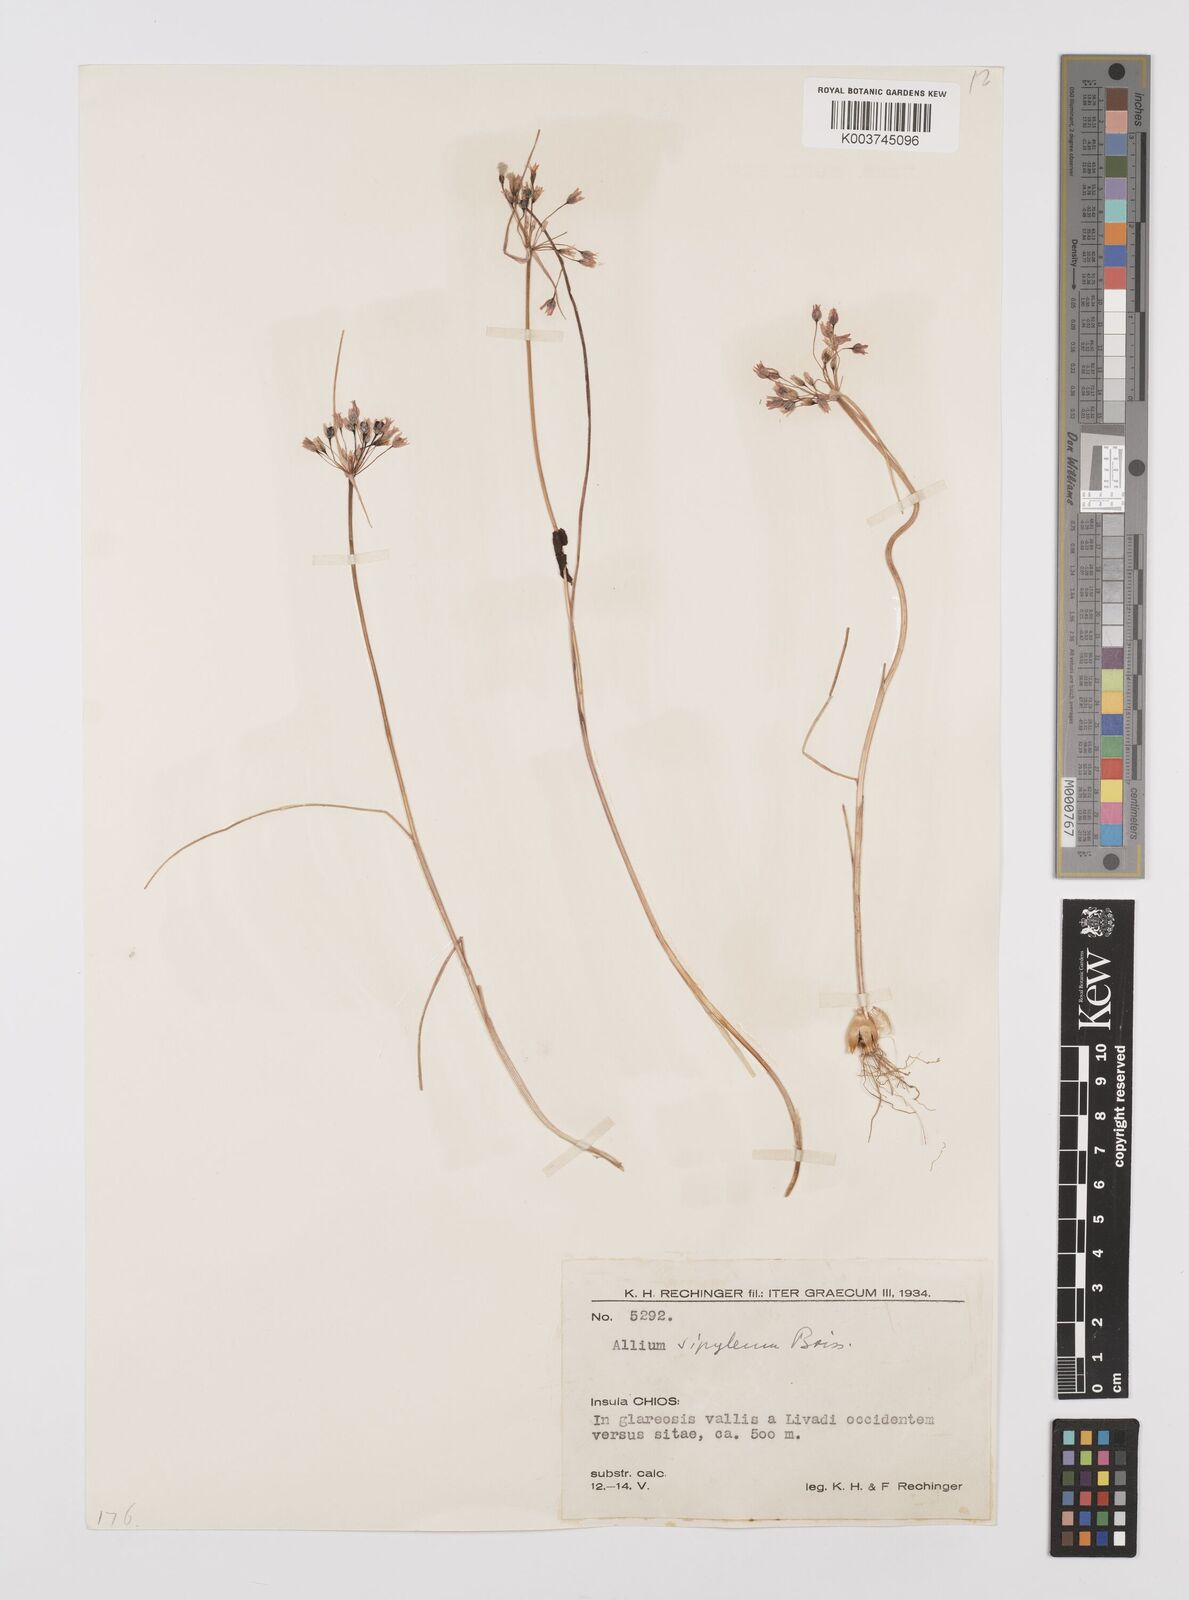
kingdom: Plantae
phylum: Tracheophyta
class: Liliopsida
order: Asparagales
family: Amaryllidaceae
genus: Allium
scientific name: Allium sipyleum
